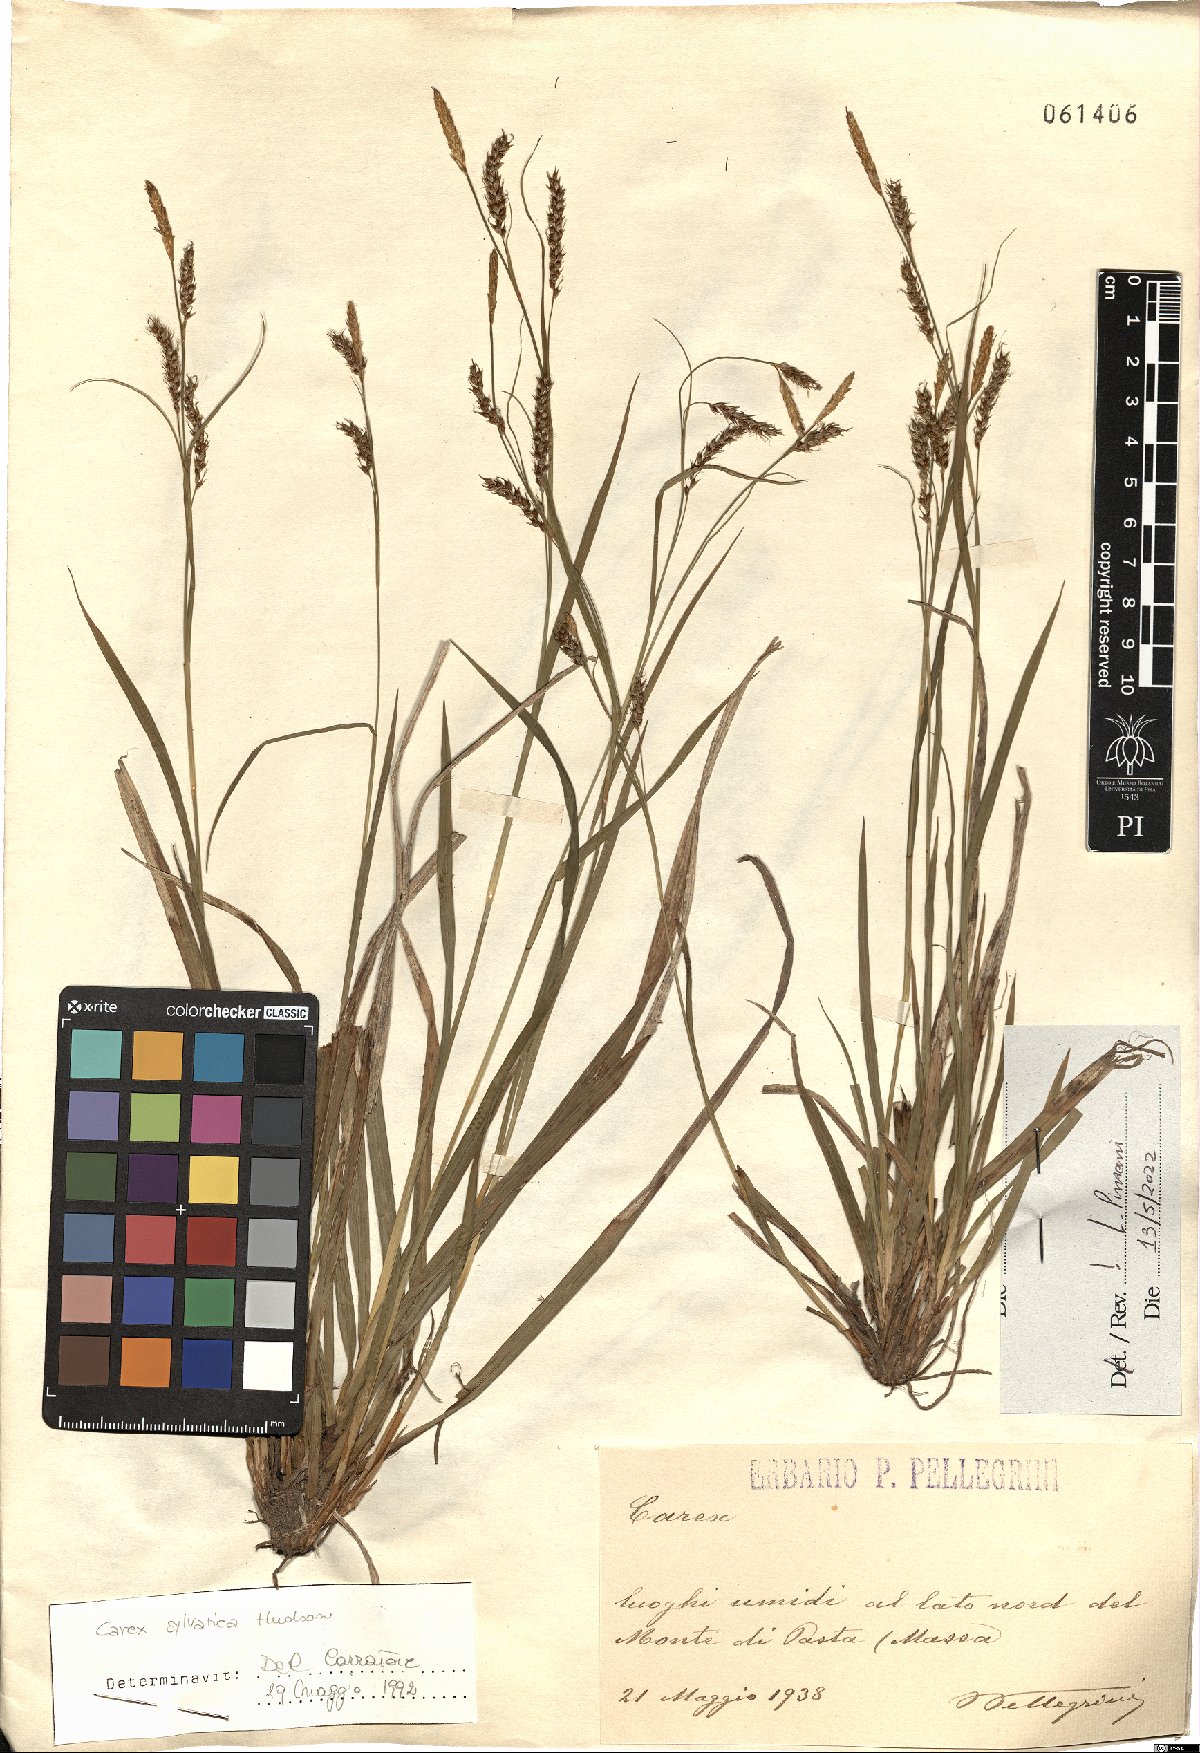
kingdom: Plantae
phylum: Tracheophyta
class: Liliopsida
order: Poales
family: Cyperaceae
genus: Carex
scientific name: Carex sylvatica
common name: Wood-sedge
